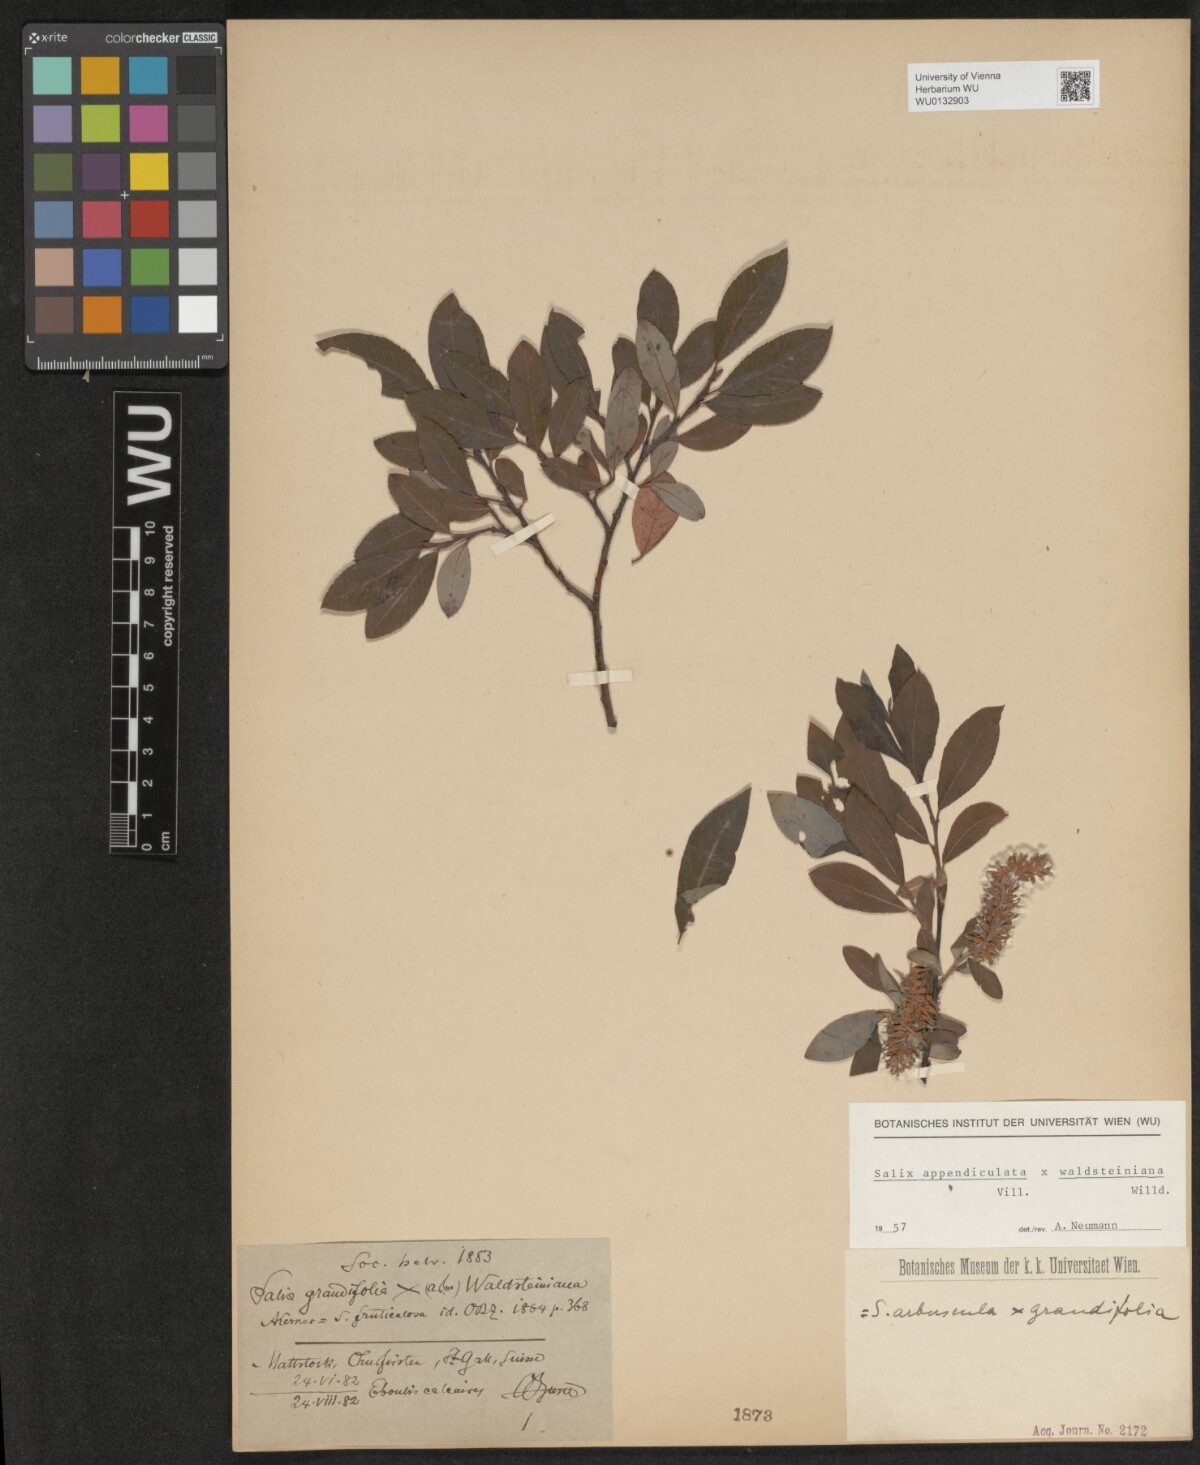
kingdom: Plantae
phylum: Tracheophyta
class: Magnoliopsida
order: Malpighiales
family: Salicaceae
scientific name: Salicaceae
